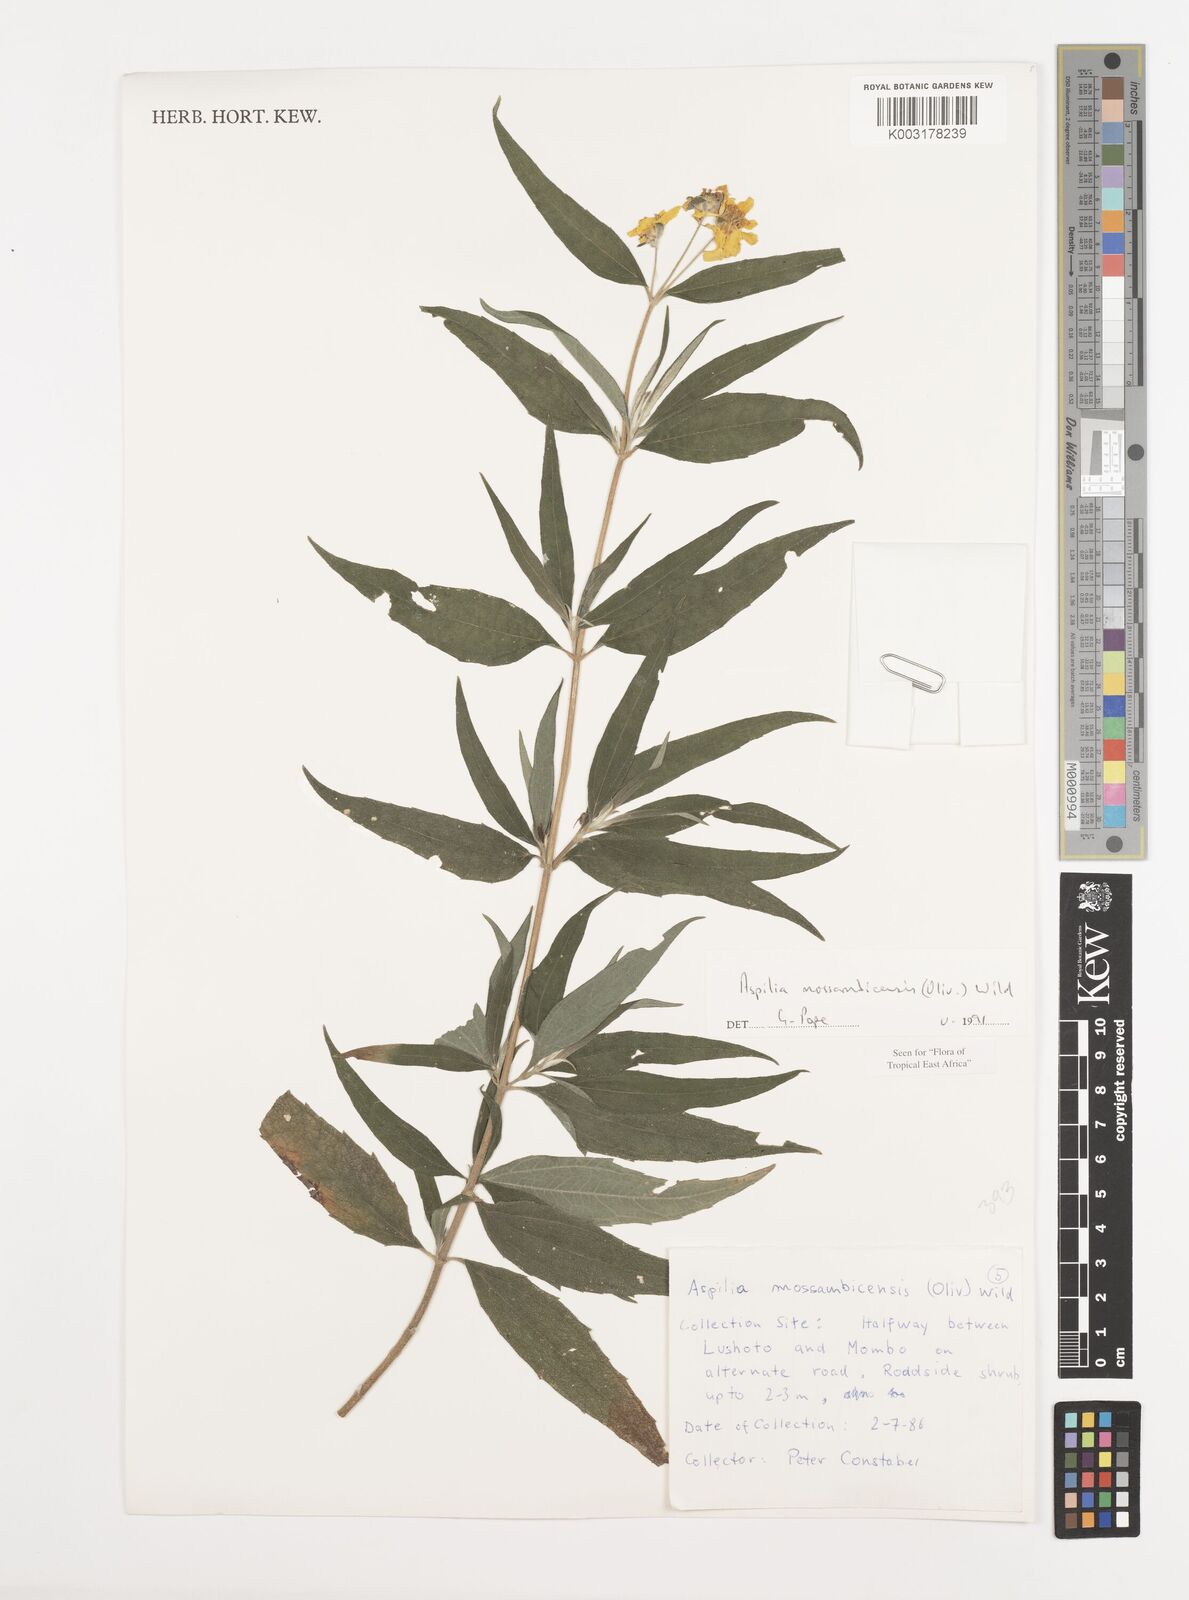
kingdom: Plantae
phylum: Tracheophyta
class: Magnoliopsida
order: Asterales
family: Asteraceae
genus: Aspilia
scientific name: Aspilia mossambicensis
